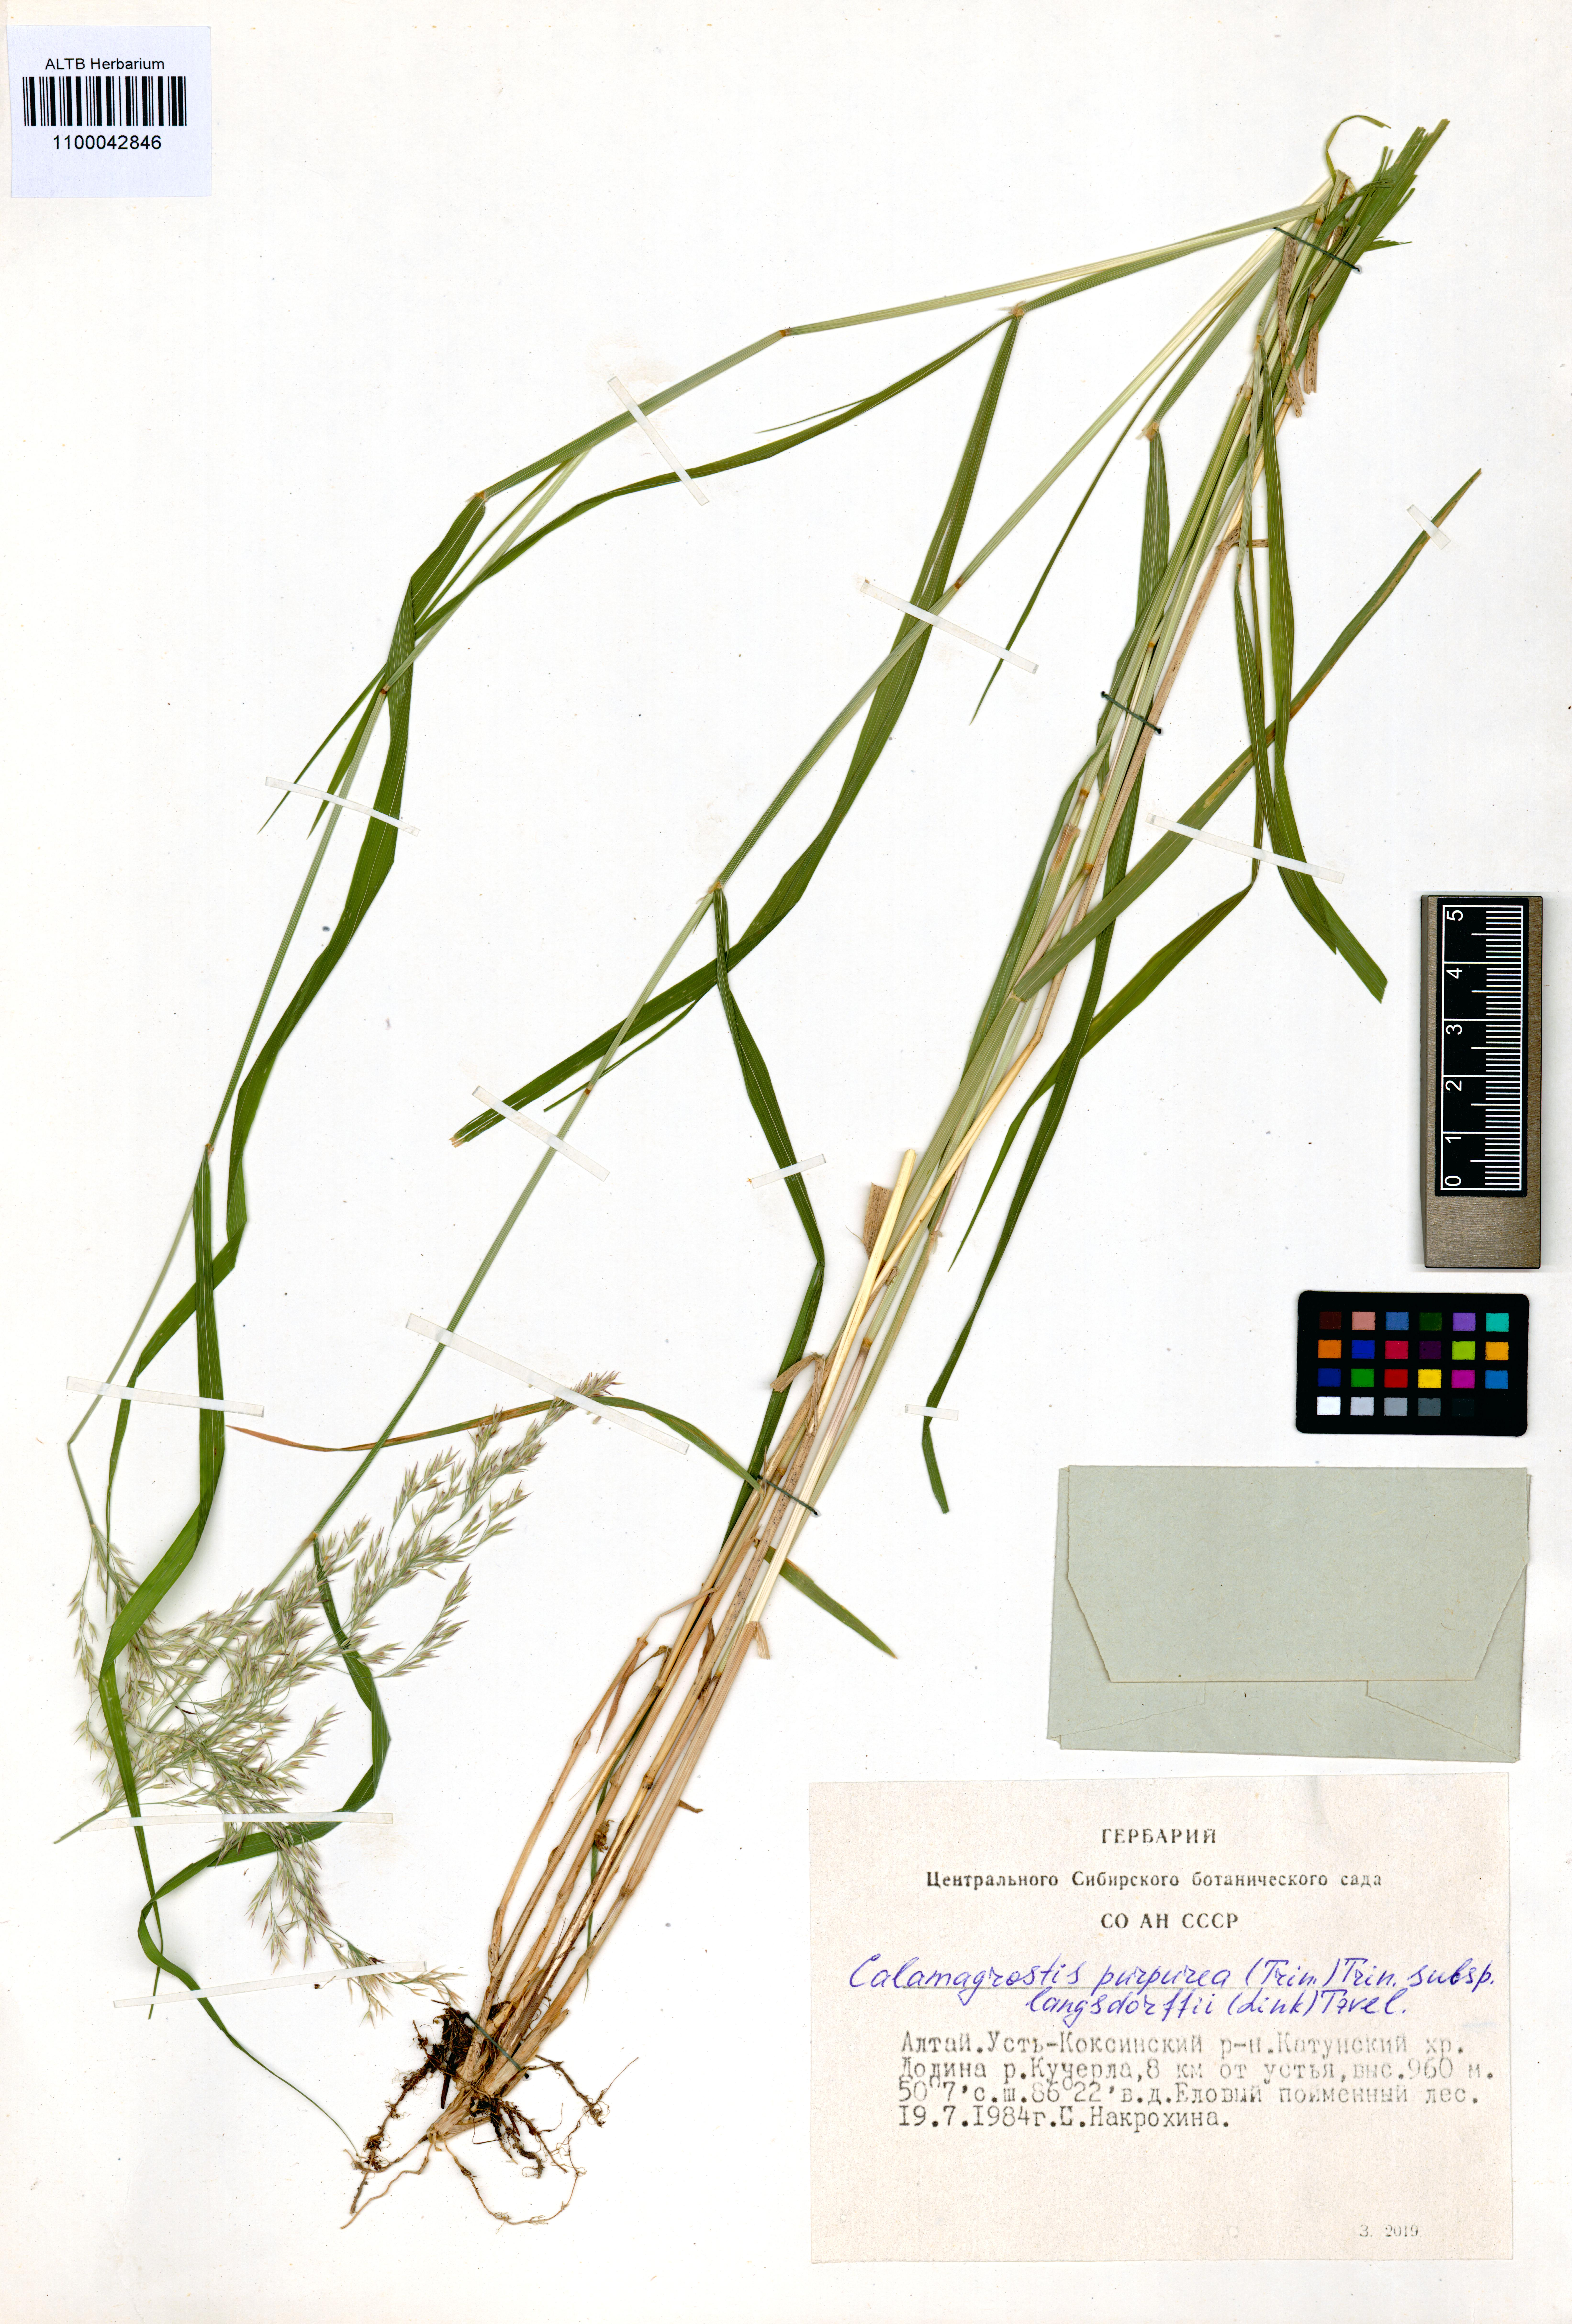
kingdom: Plantae
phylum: Tracheophyta
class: Liliopsida
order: Poales
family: Poaceae
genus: Calamagrostis
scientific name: Calamagrostis purpurea
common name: Scandinavian small-reed
